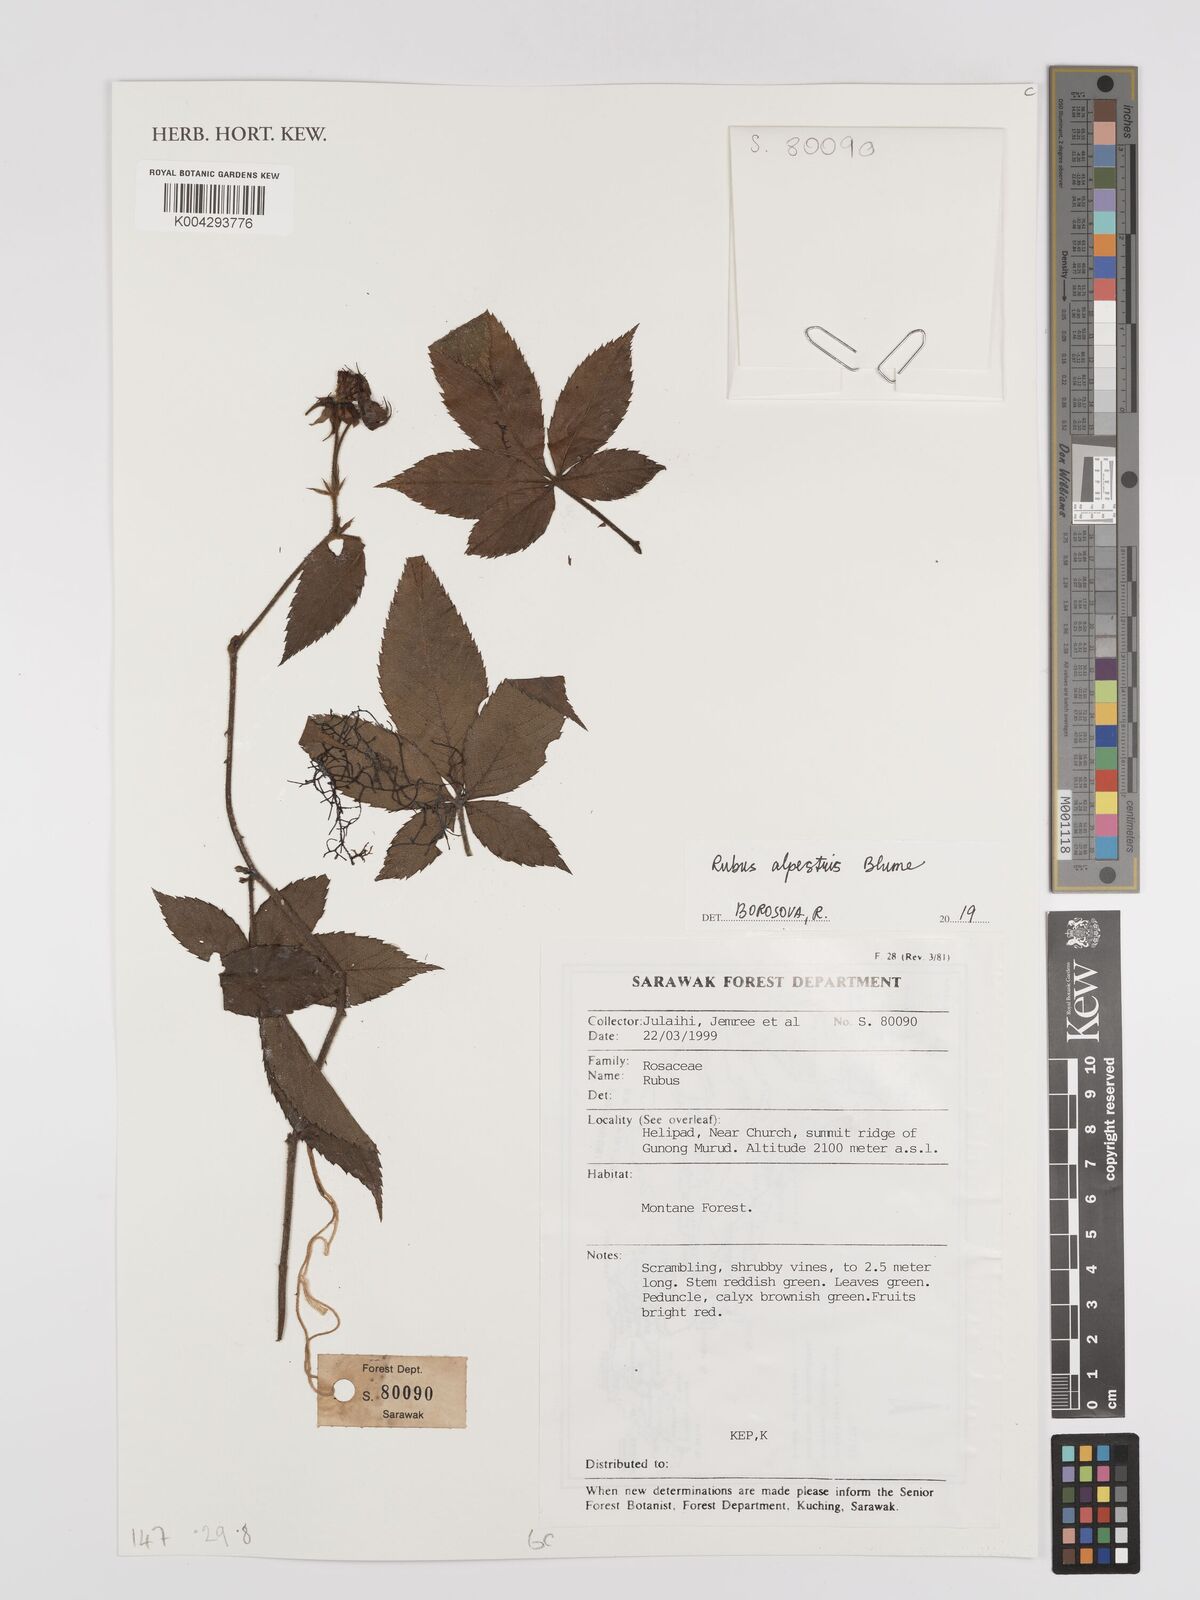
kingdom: Plantae
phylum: Tracheophyta
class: Magnoliopsida
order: Rosales
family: Rosaceae
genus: Rubus
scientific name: Rubus alpestris
